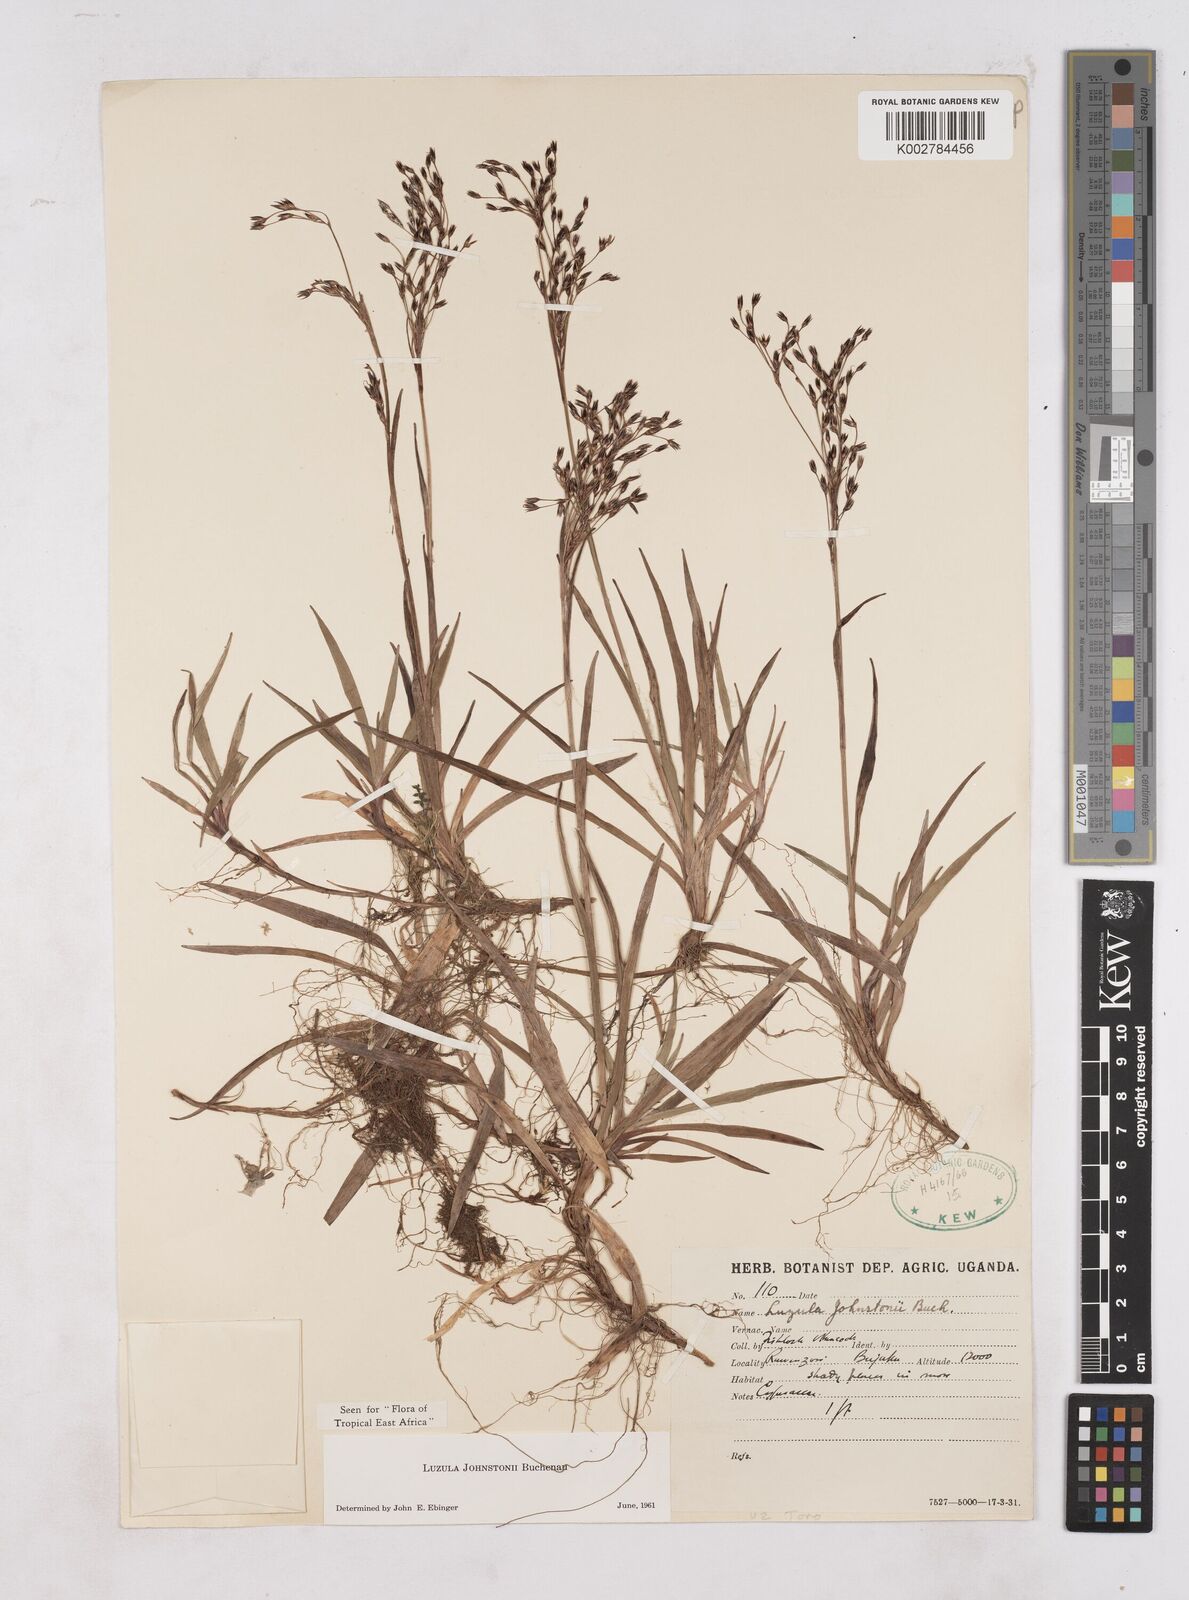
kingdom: Plantae
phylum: Tracheophyta
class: Liliopsida
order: Poales
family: Juncaceae
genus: Luzula
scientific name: Luzula johnstonii
